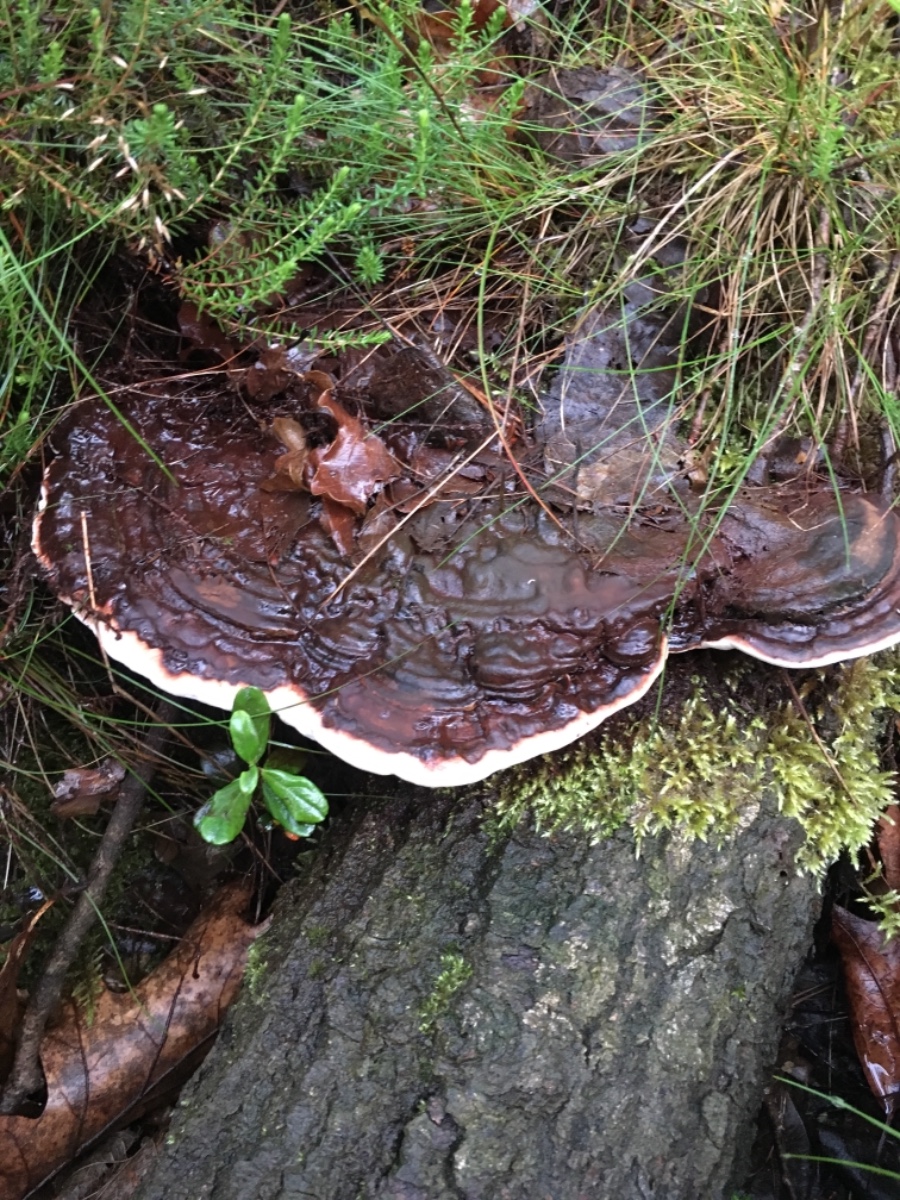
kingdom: Fungi
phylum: Basidiomycota
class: Agaricomycetes
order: Polyporales
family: Polyporaceae
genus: Ganoderma
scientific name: Ganoderma applanatum
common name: flad lakporesvamp
